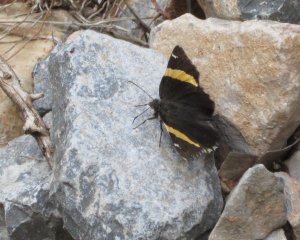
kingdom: Animalia
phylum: Arthropoda
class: Insecta
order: Lepidoptera
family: Hesperiidae
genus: Autochton
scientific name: Autochton cellus
